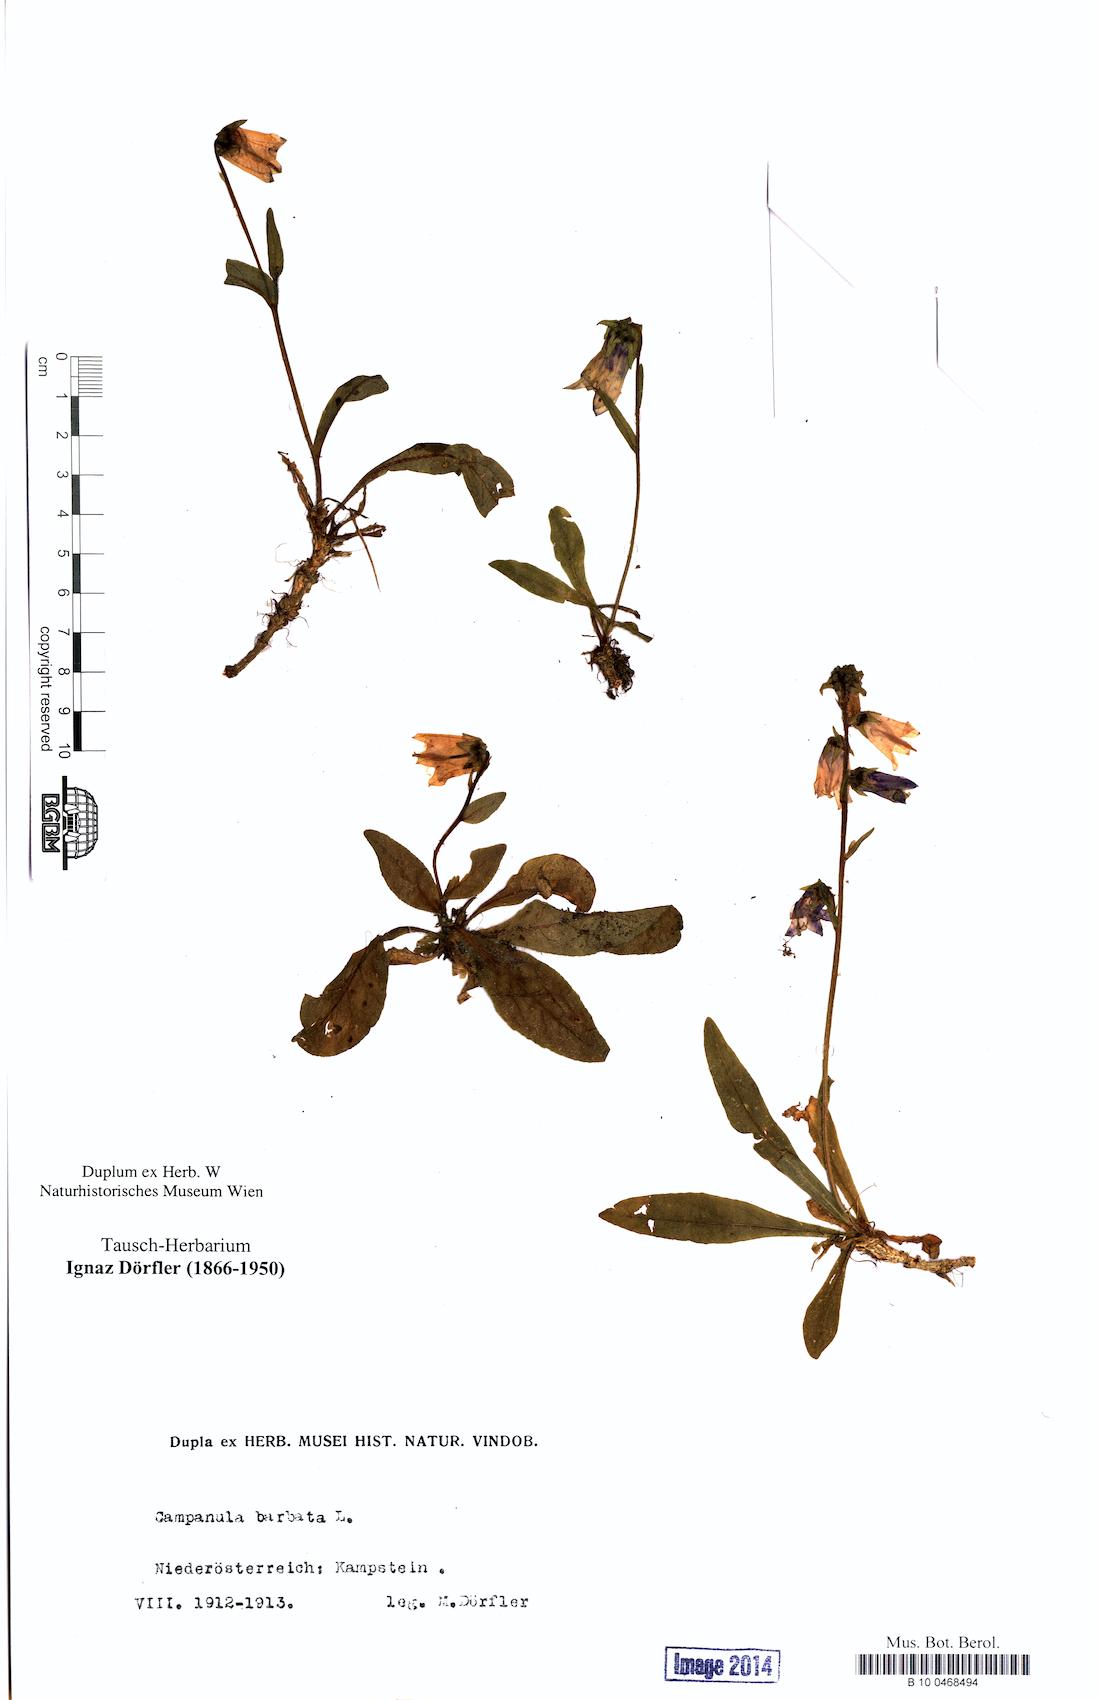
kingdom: Plantae
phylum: Tracheophyta
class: Magnoliopsida
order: Asterales
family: Campanulaceae
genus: Campanula
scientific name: Campanula barbata
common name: Bearded bellflower
